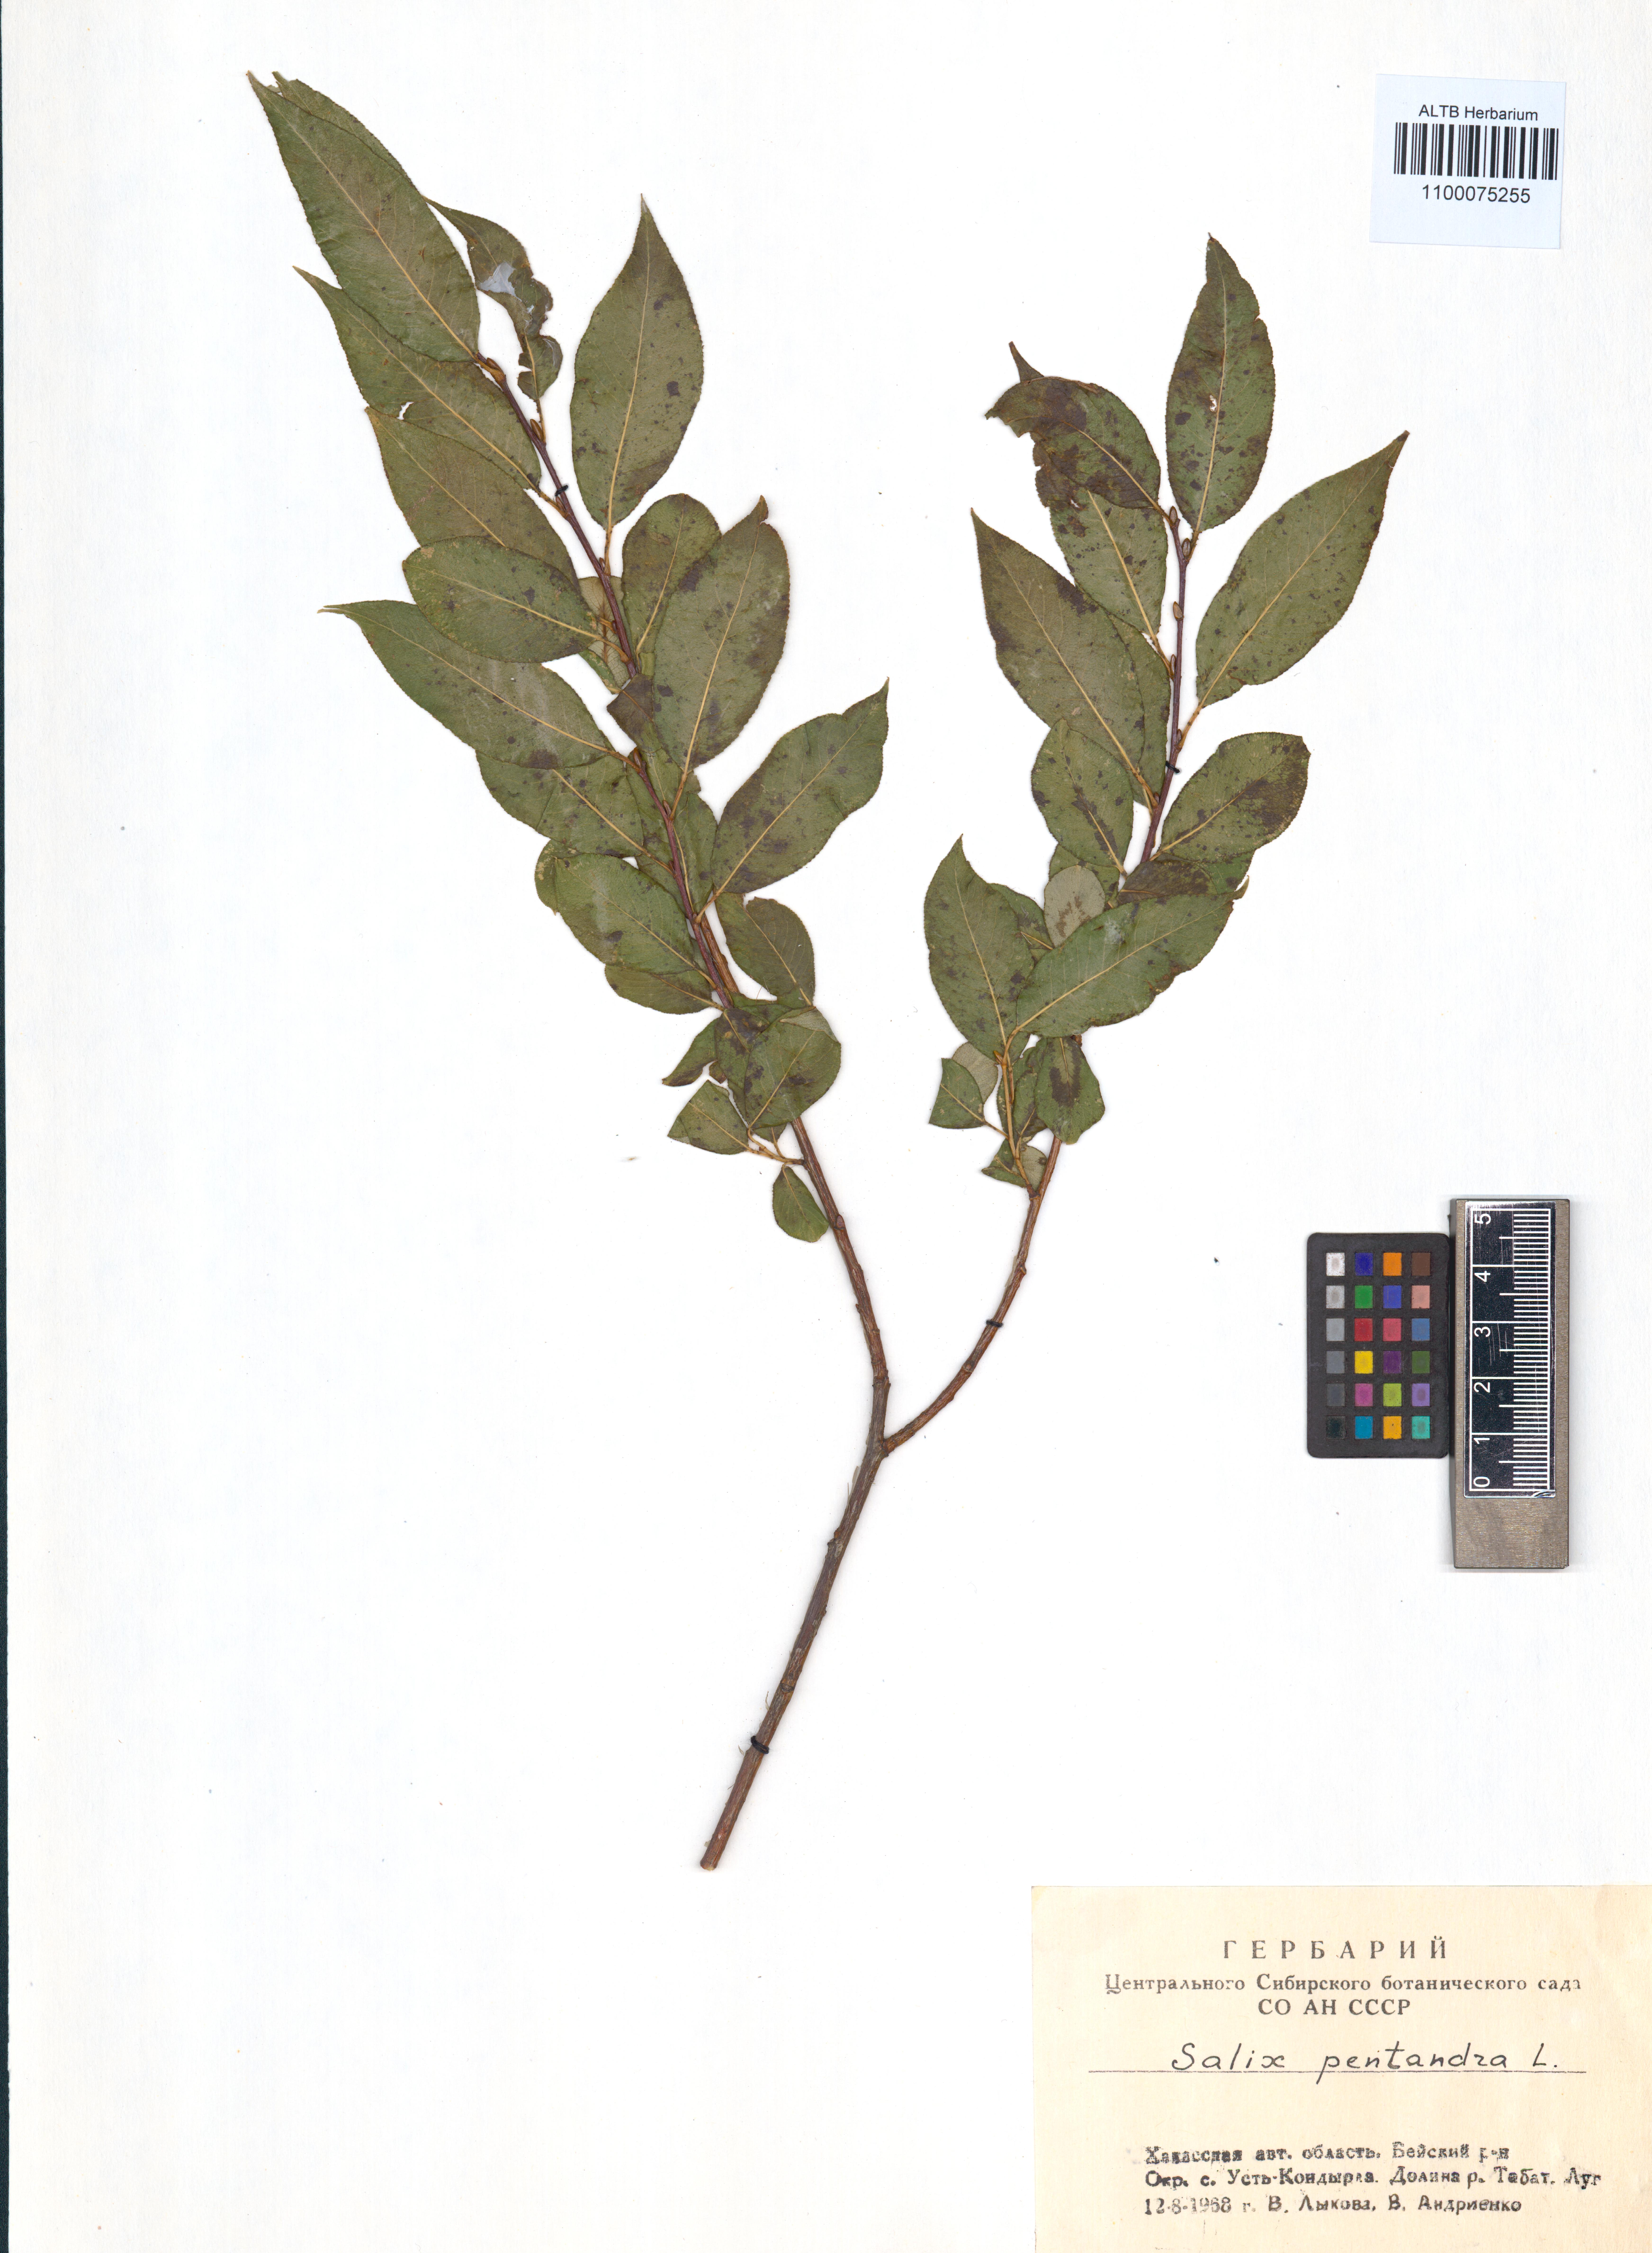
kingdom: Plantae
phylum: Tracheophyta
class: Magnoliopsida
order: Malpighiales
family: Salicaceae
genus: Salix
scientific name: Salix pentandra
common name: Bay willow
